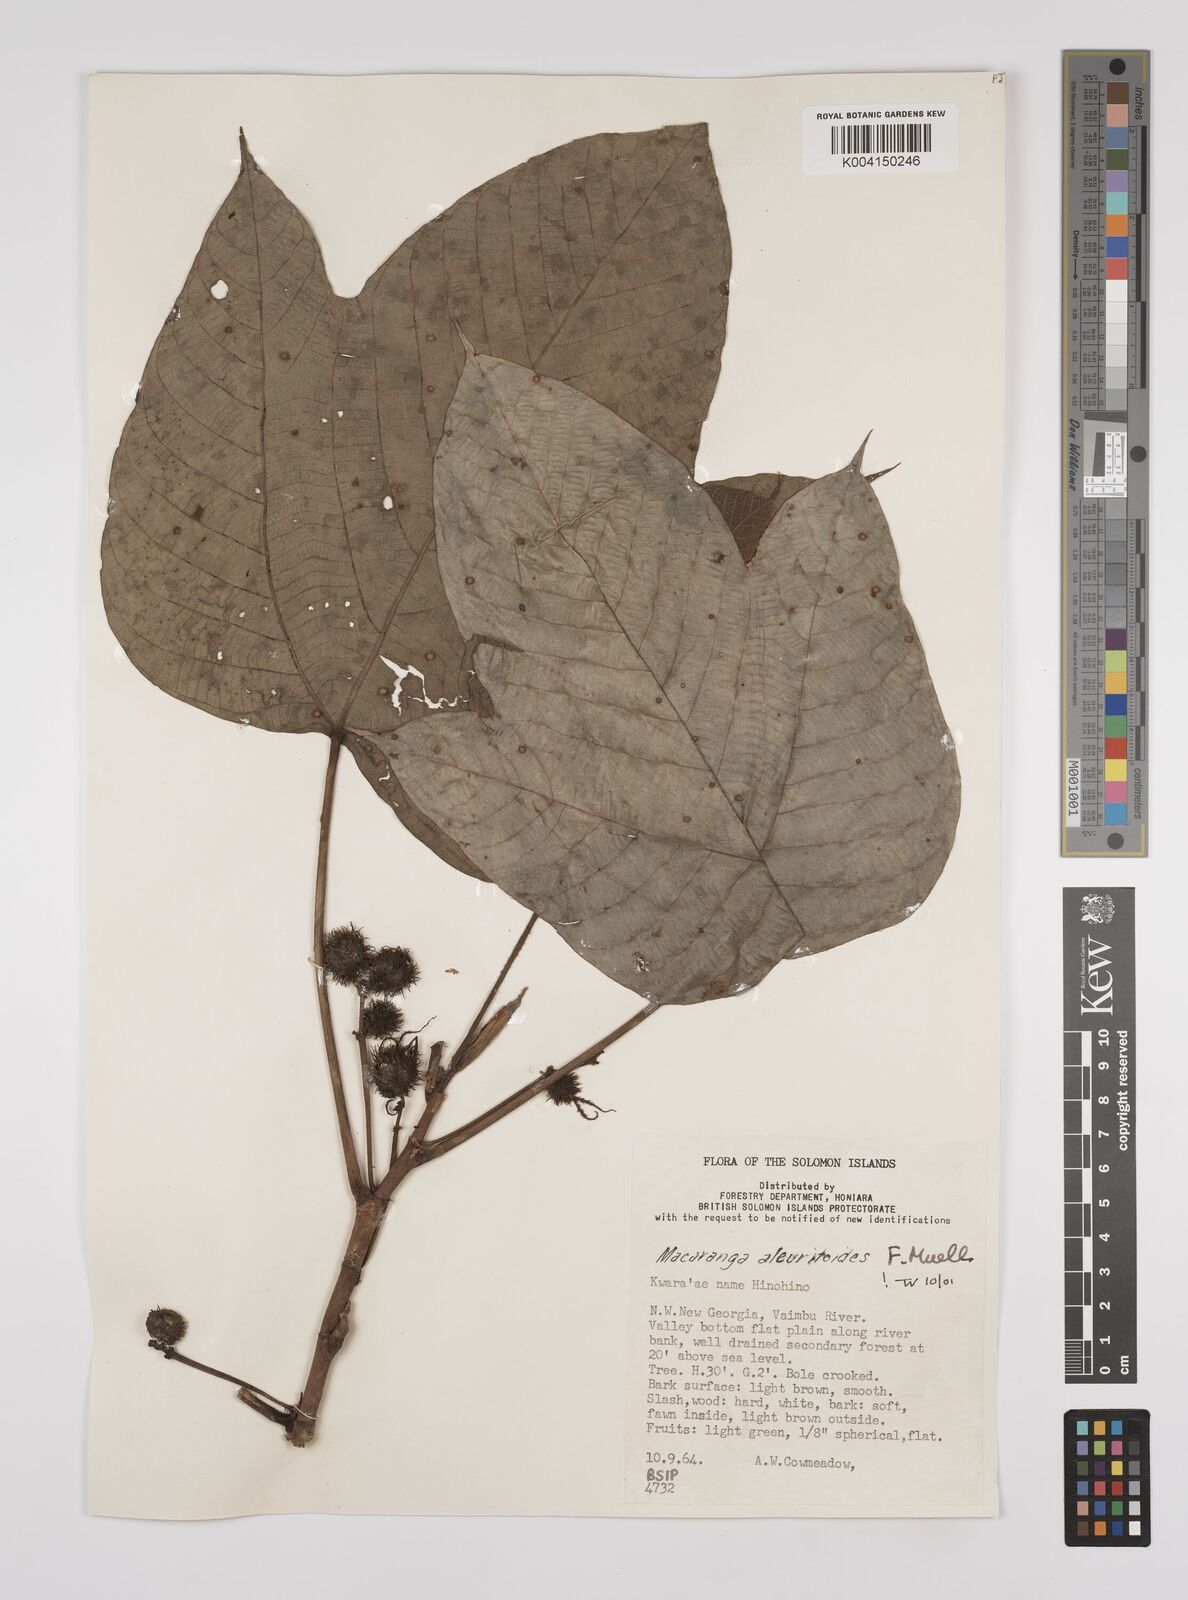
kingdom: Plantae
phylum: Tracheophyta
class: Magnoliopsida
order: Malpighiales
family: Euphorbiaceae
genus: Macaranga
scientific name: Macaranga aleuritoides
